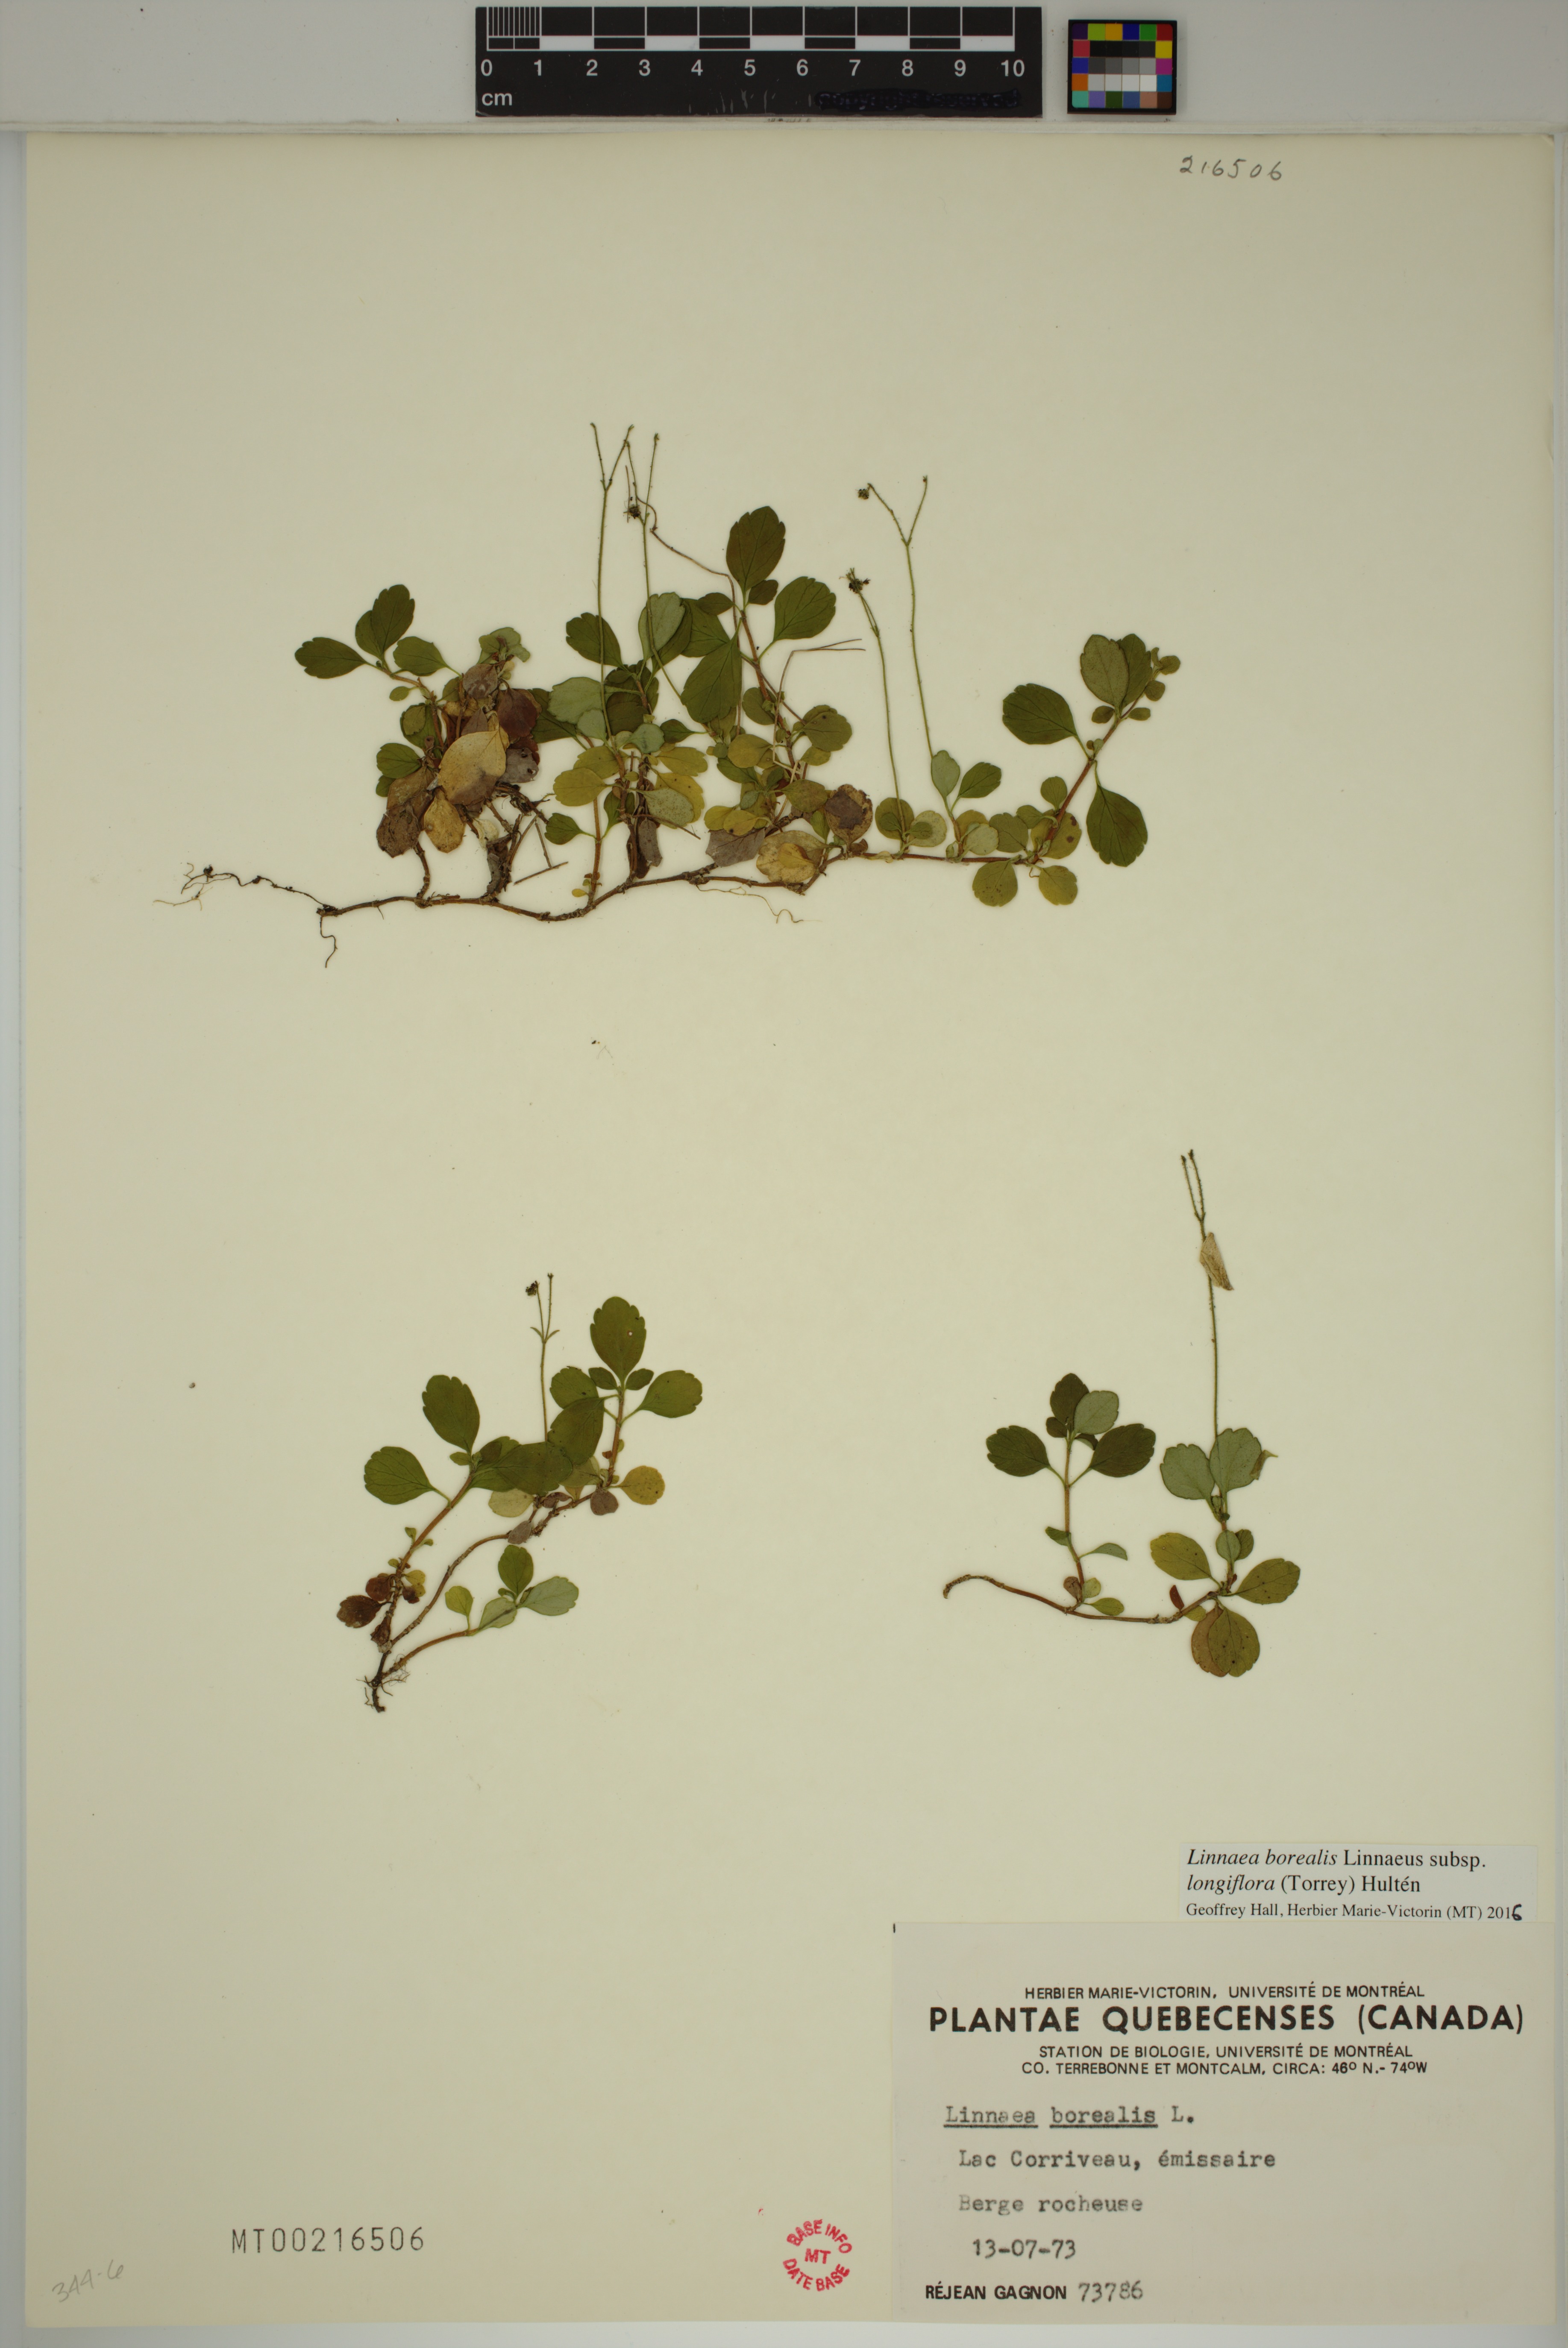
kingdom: Plantae
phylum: Tracheophyta
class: Magnoliopsida
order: Dipsacales
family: Caprifoliaceae
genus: Linnaea
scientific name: Linnaea borealis
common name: Twinflower
